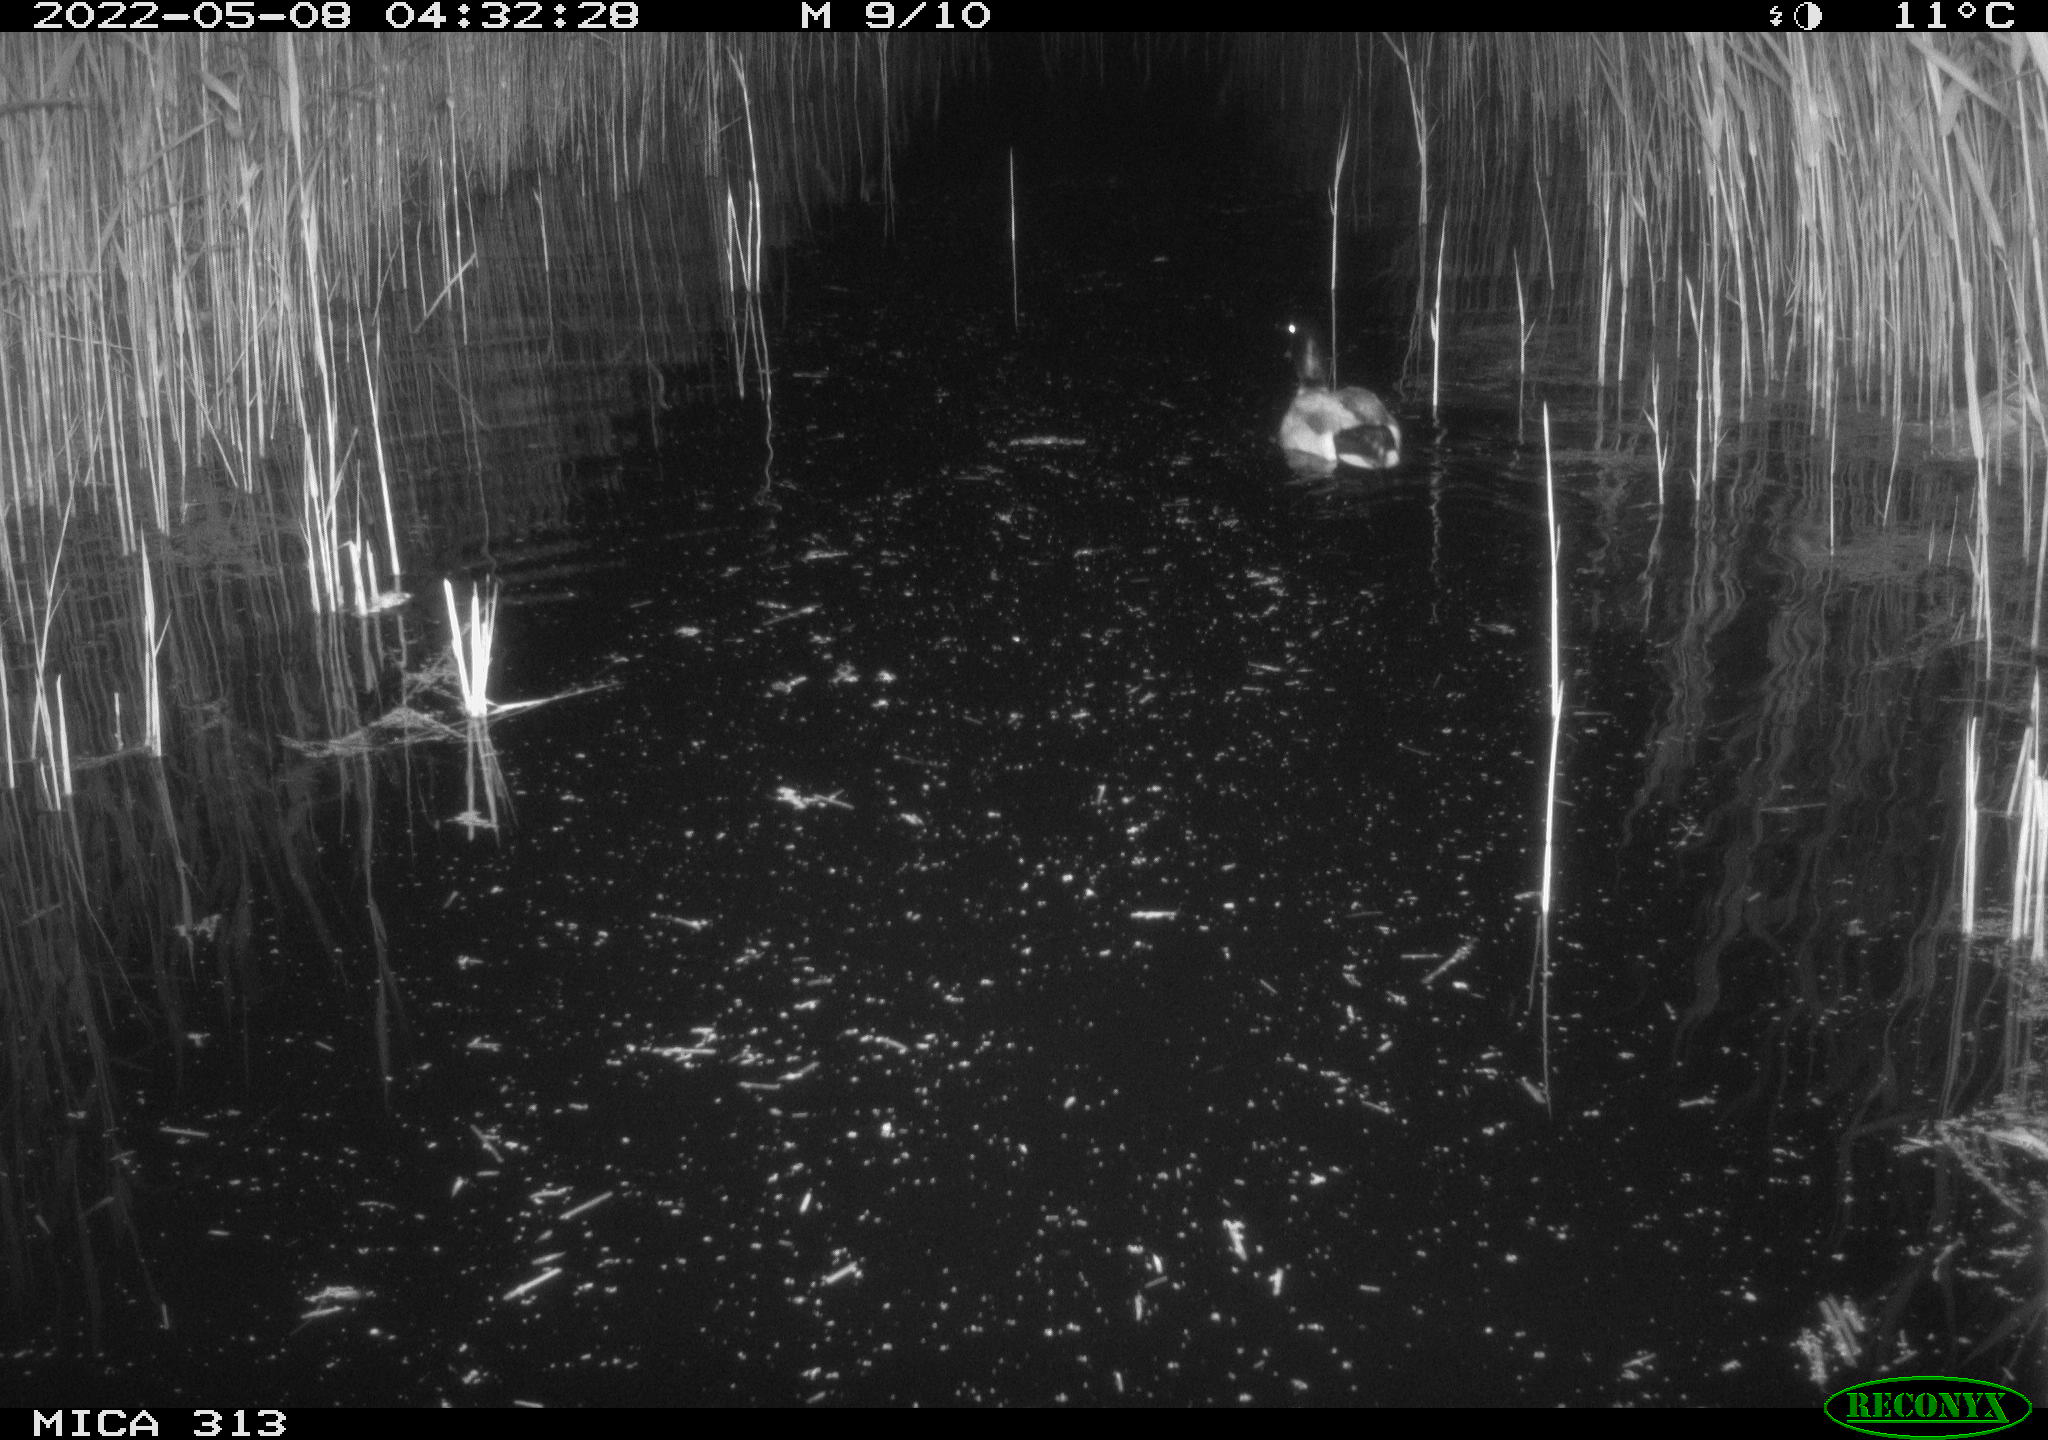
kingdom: Animalia
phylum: Chordata
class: Aves
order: Anseriformes
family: Anatidae
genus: Anas
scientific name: Anas platyrhynchos
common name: Mallard
